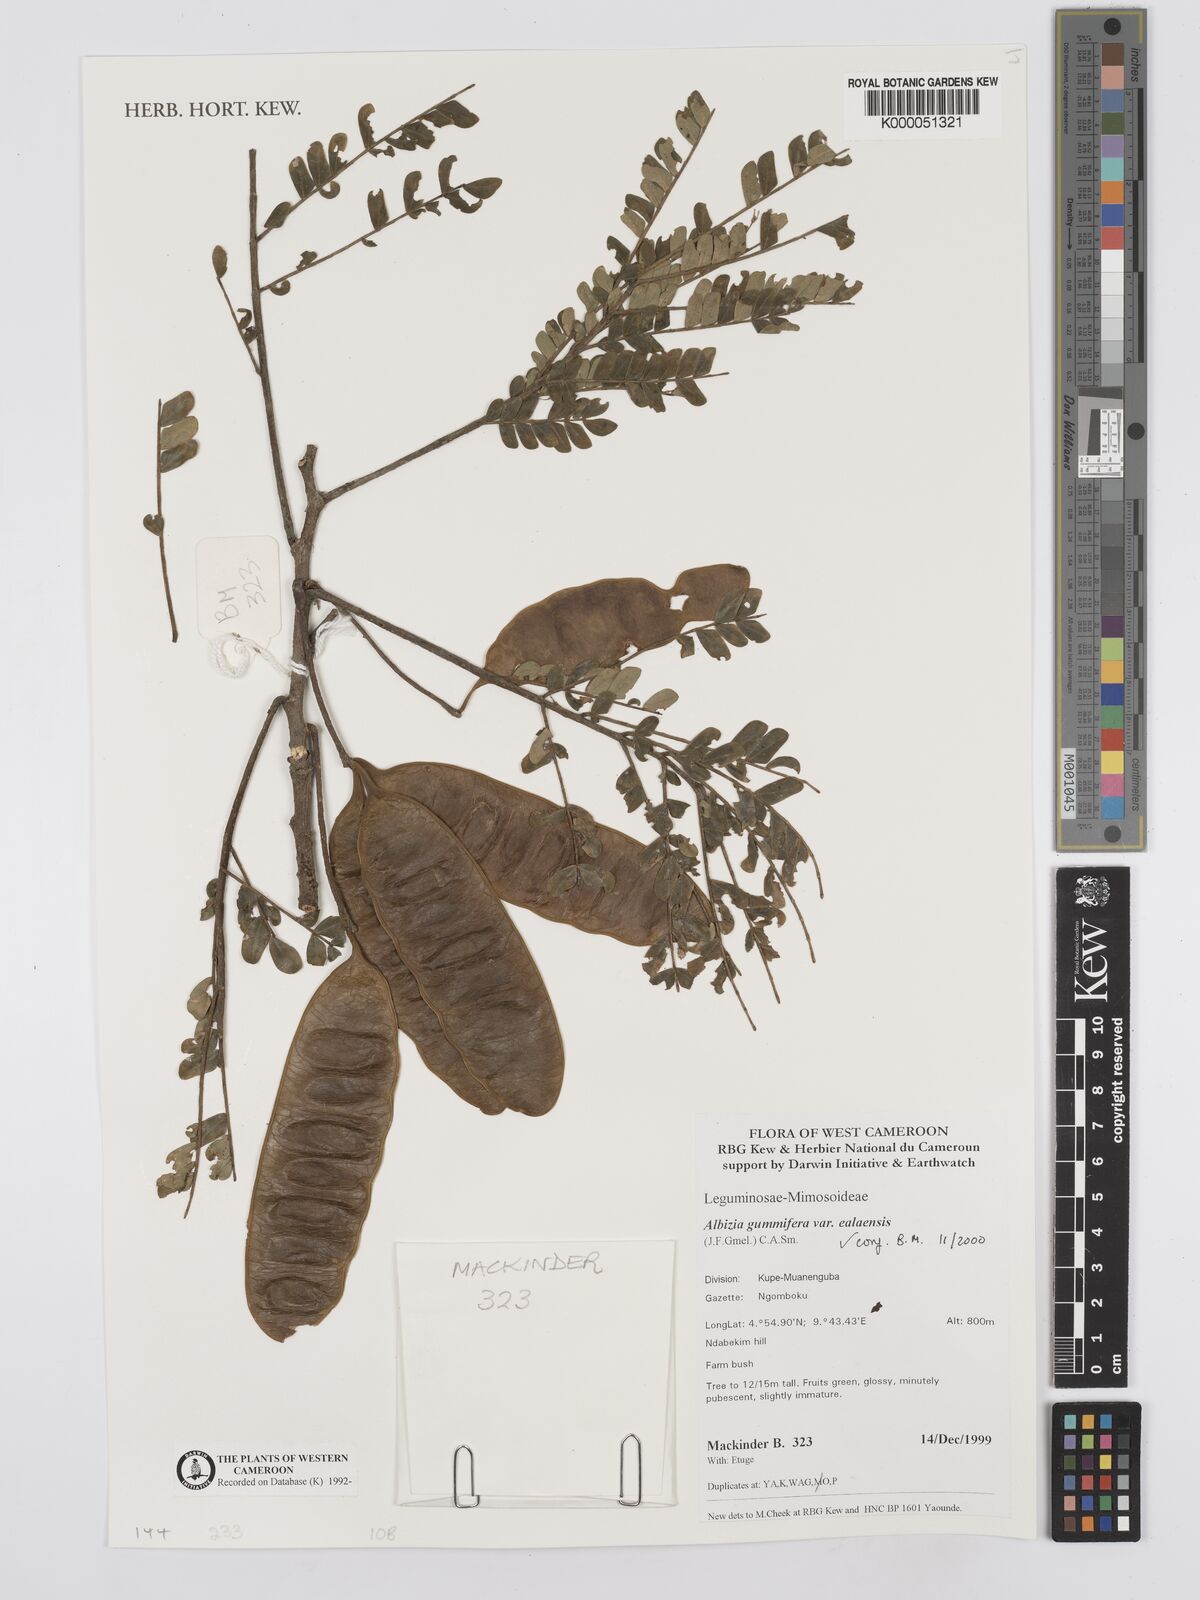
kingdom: Plantae
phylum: Tracheophyta
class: Magnoliopsida
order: Fabales
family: Fabaceae
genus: Albizia
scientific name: Albizia gummifera
